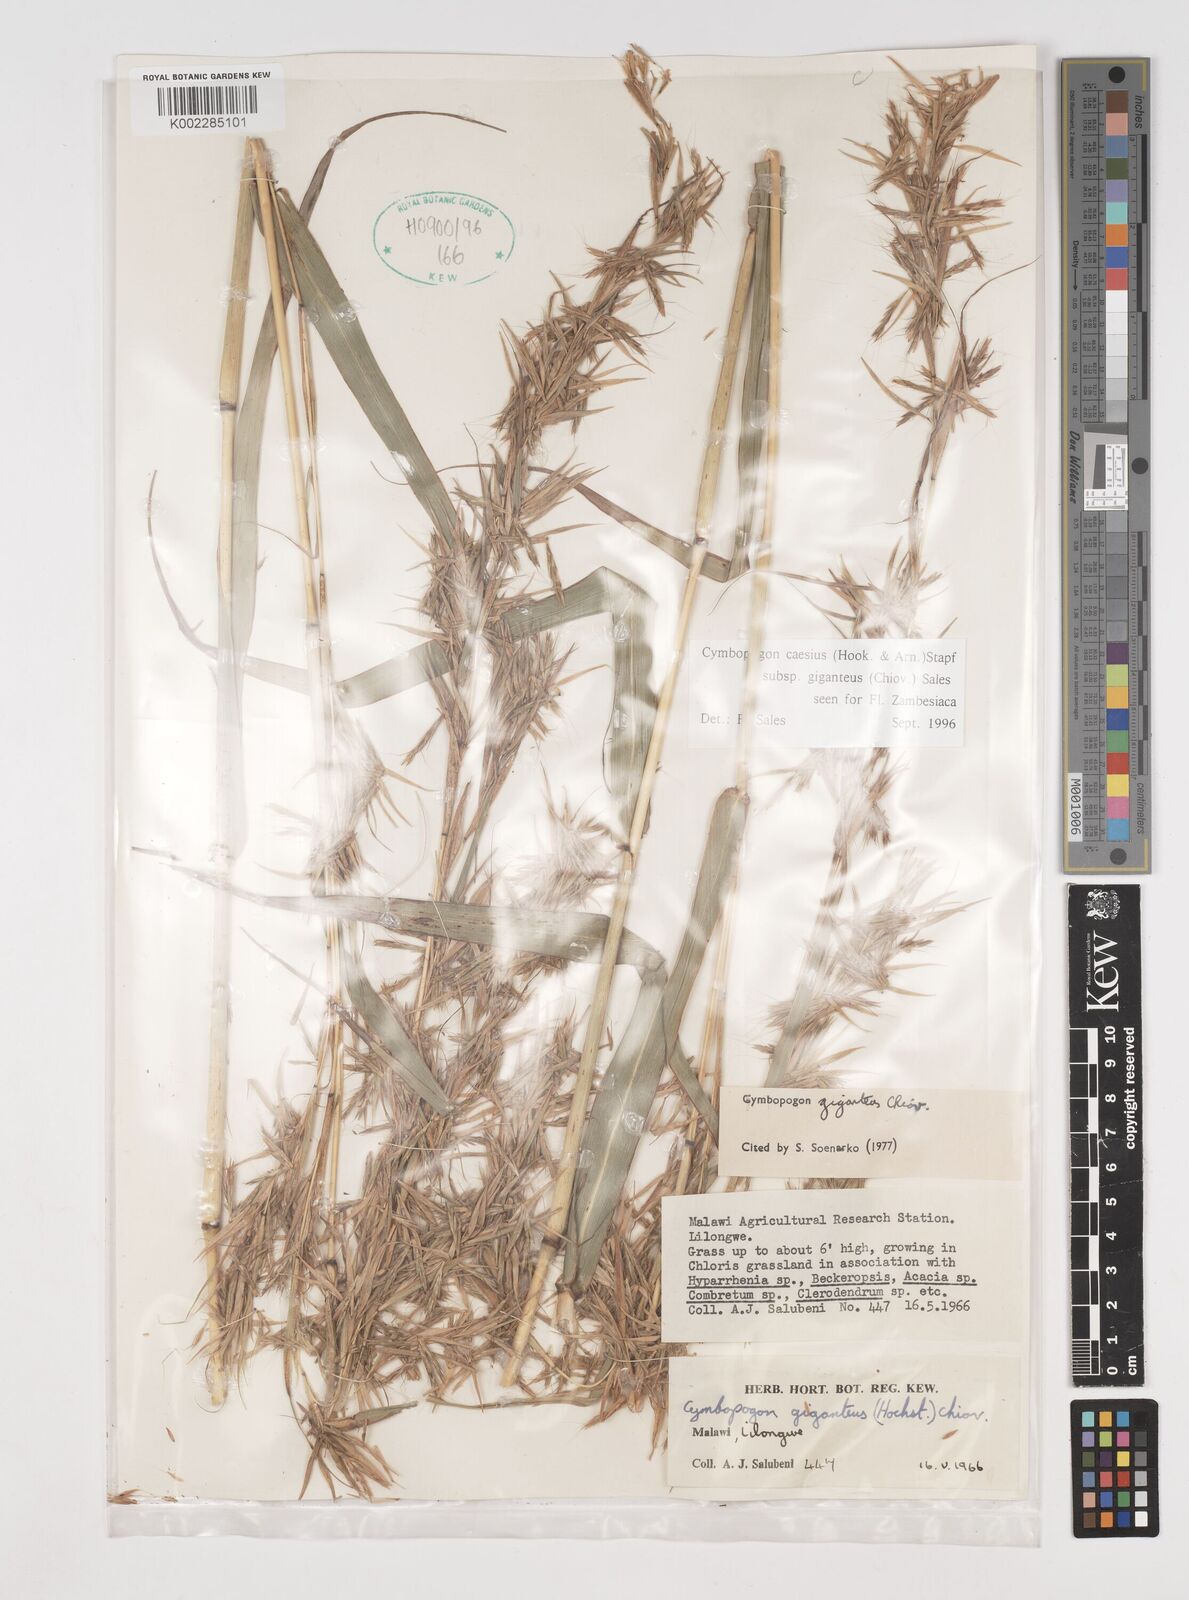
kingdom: Plantae
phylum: Tracheophyta
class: Liliopsida
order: Poales
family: Poaceae
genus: Cymbopogon
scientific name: Cymbopogon giganteus
